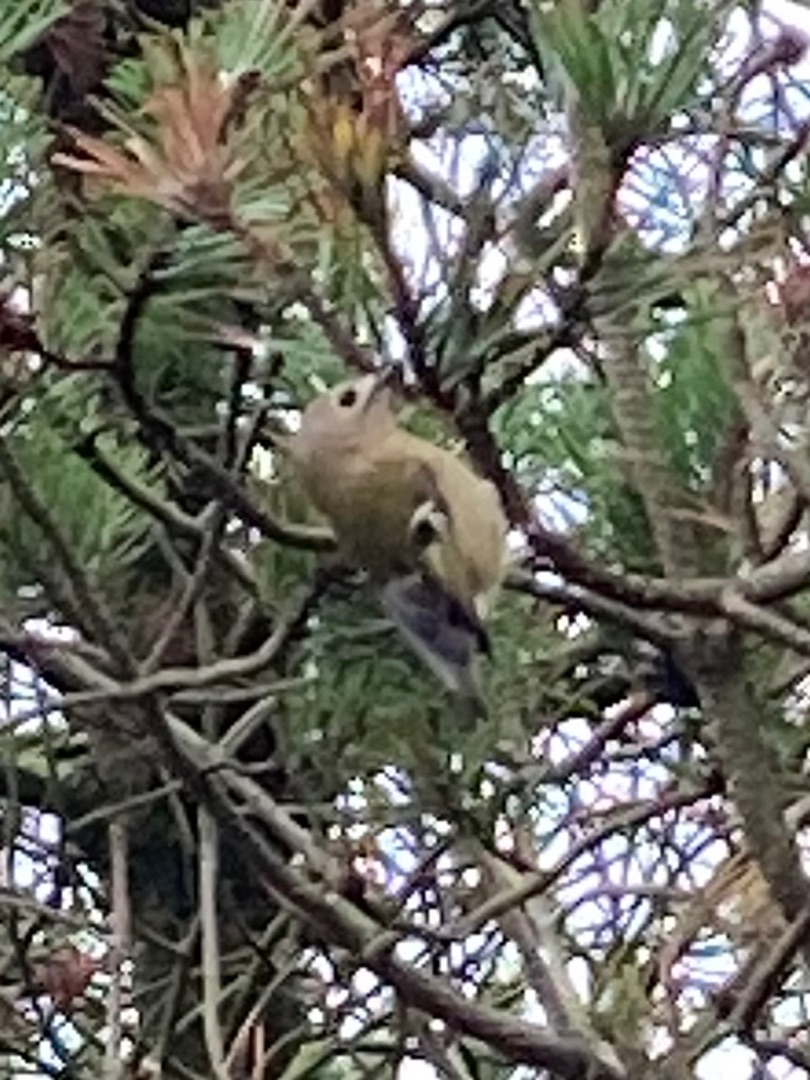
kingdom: Animalia
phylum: Chordata
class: Aves
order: Passeriformes
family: Regulidae
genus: Regulus
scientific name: Regulus regulus
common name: Fuglekonge
